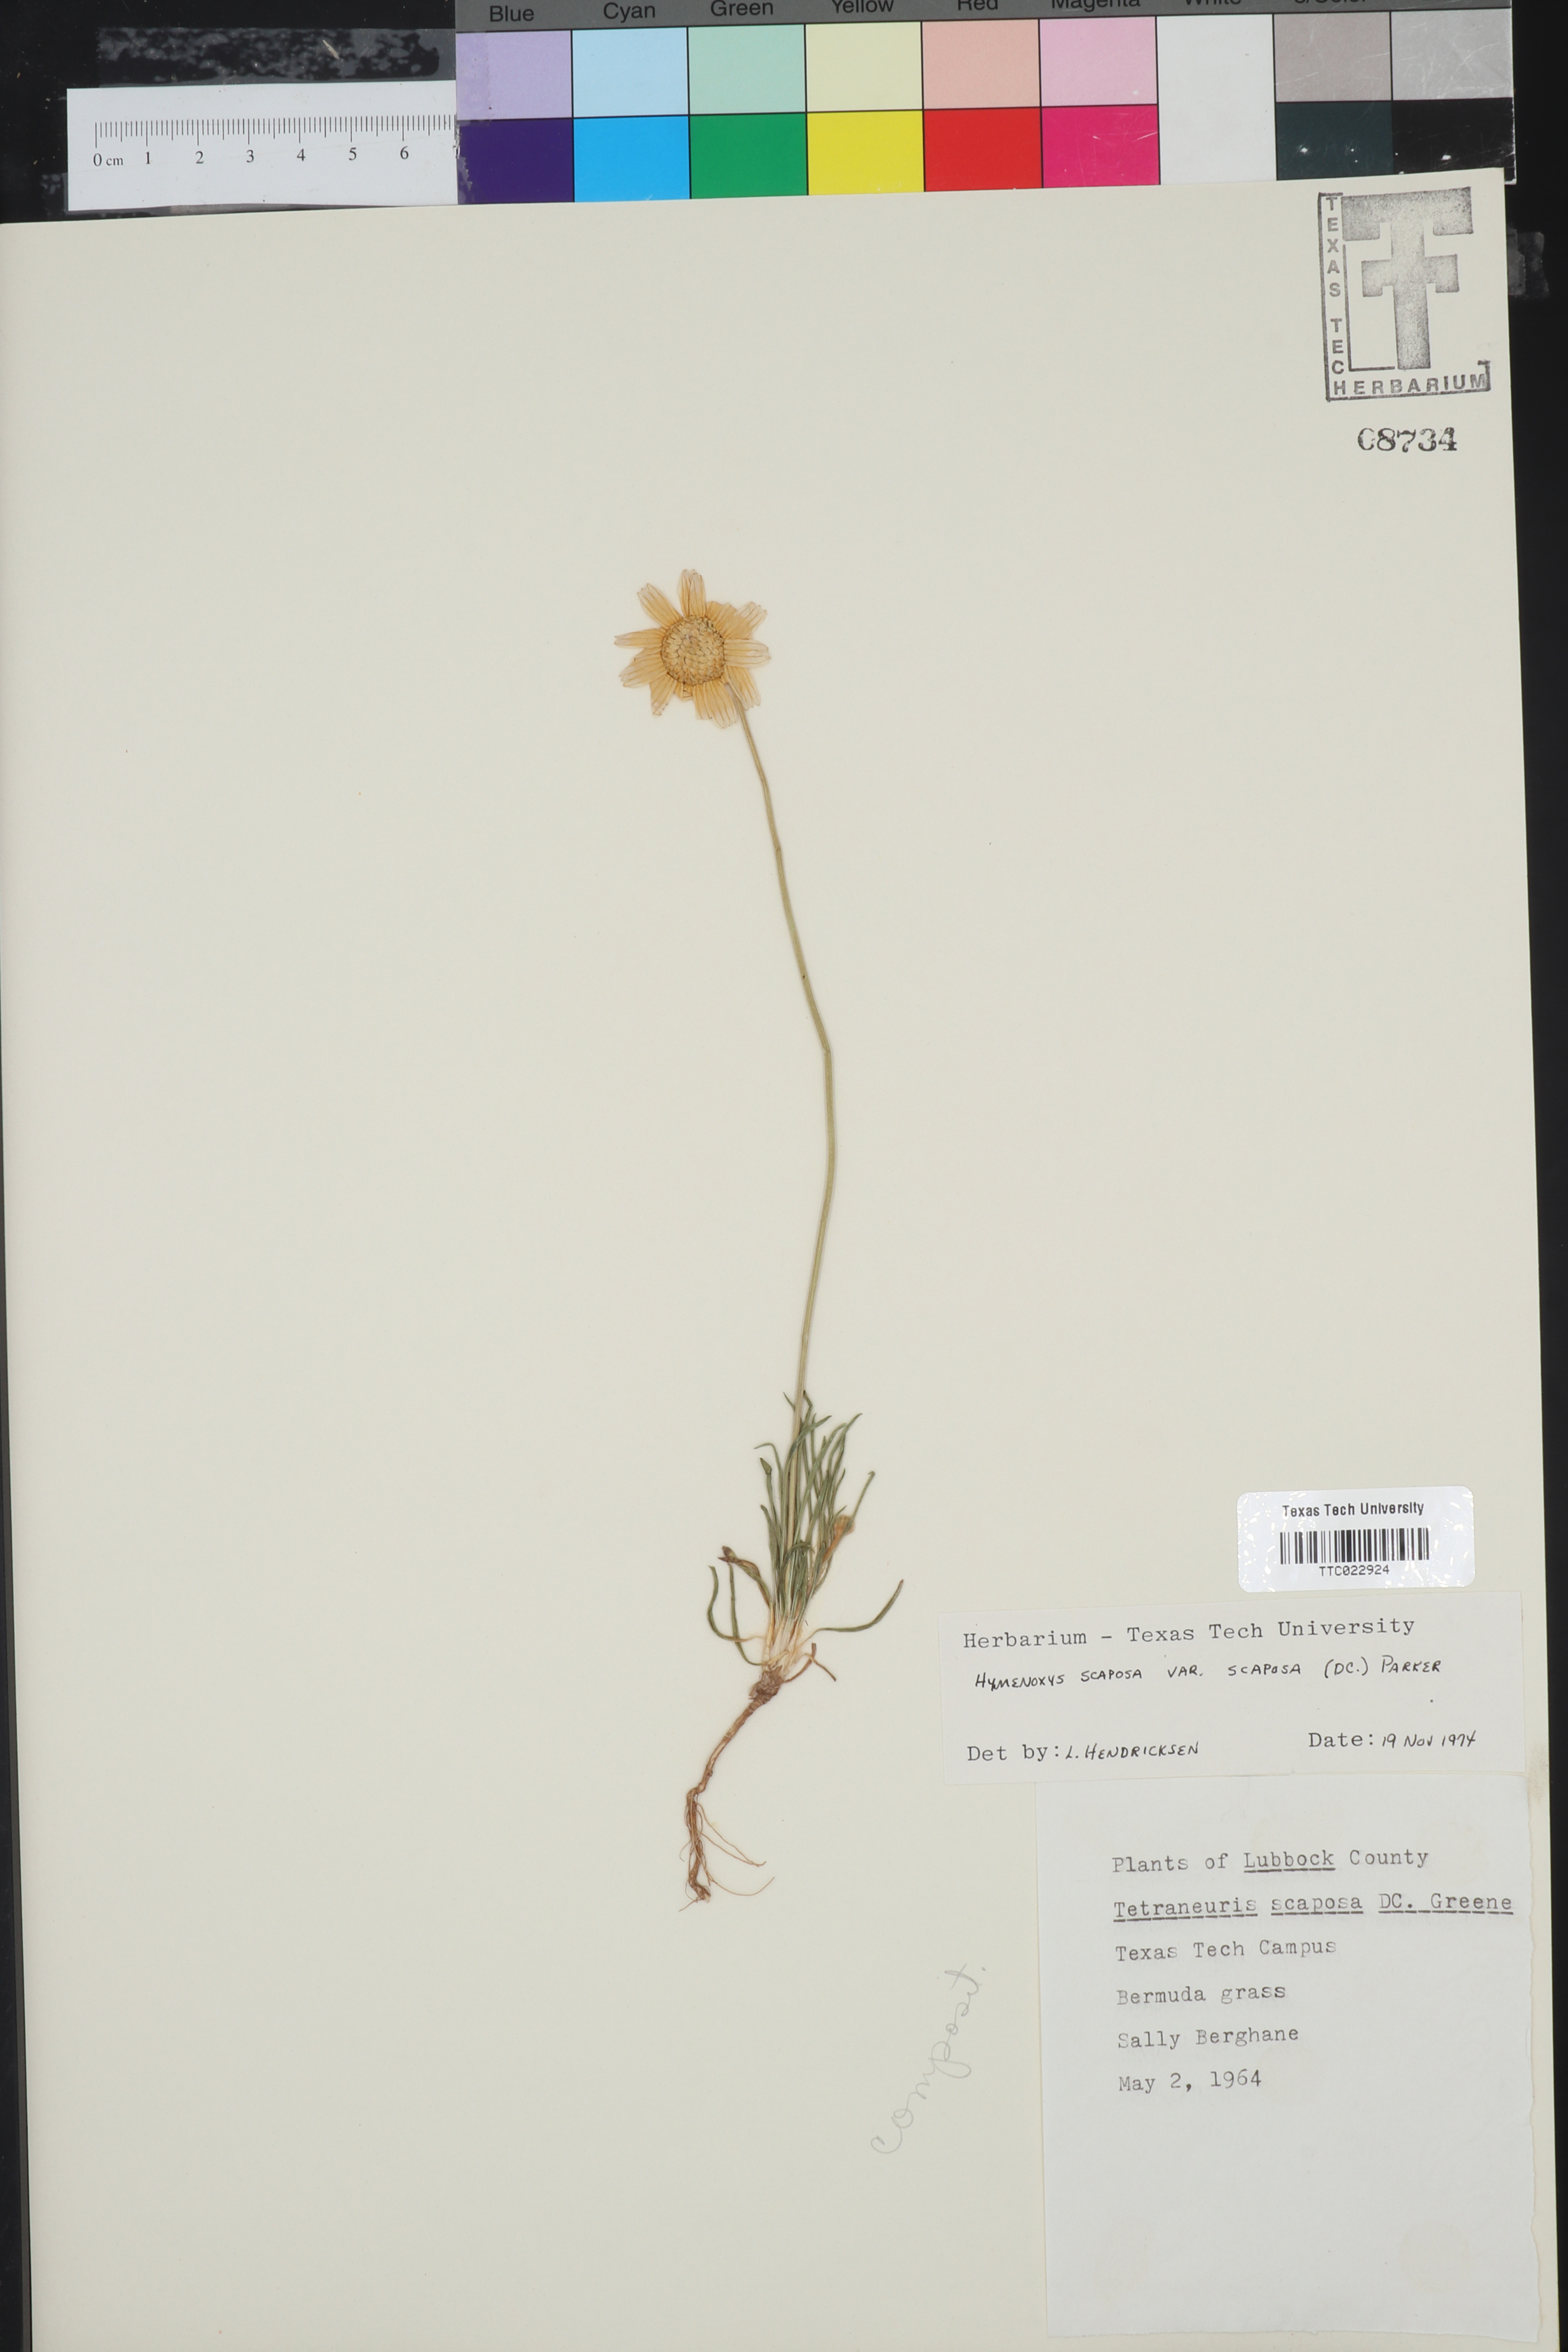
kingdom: Plantae
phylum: Tracheophyta
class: Magnoliopsida
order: Asterales
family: Asteraceae
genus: Tetraneuris
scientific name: Tetraneuris scaposa
